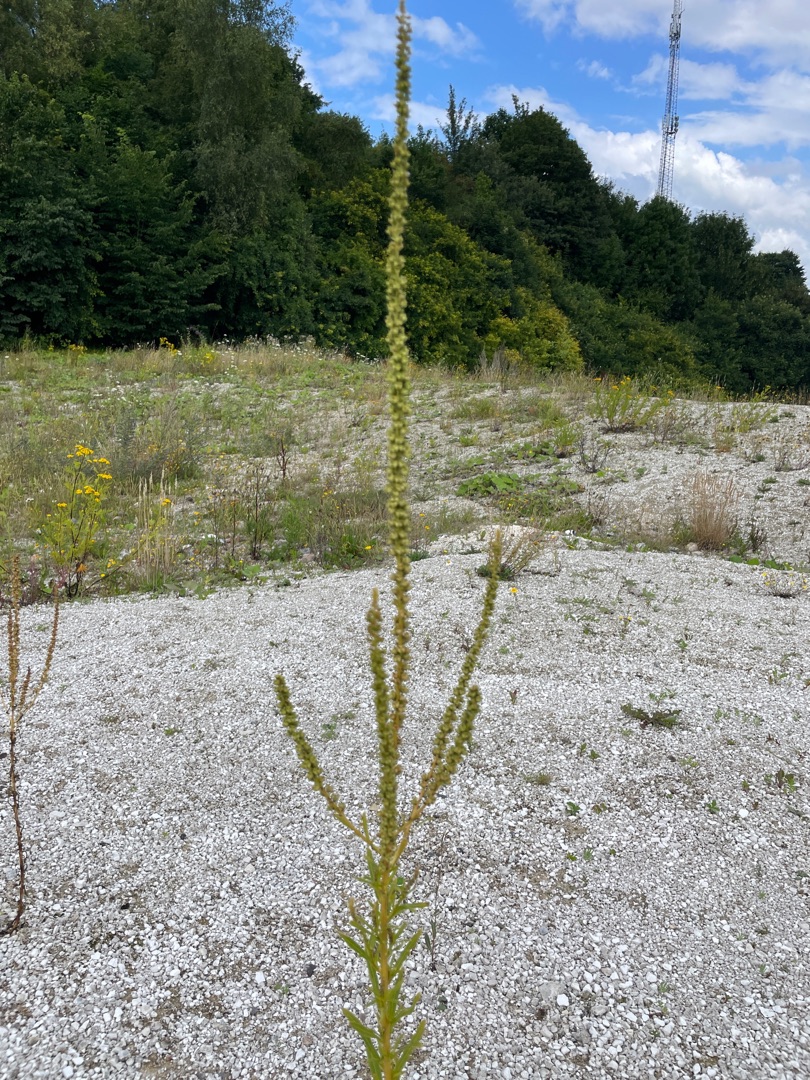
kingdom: Plantae
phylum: Tracheophyta
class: Magnoliopsida
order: Brassicales
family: Resedaceae
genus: Reseda
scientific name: Reseda luteola
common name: Farve-reseda
